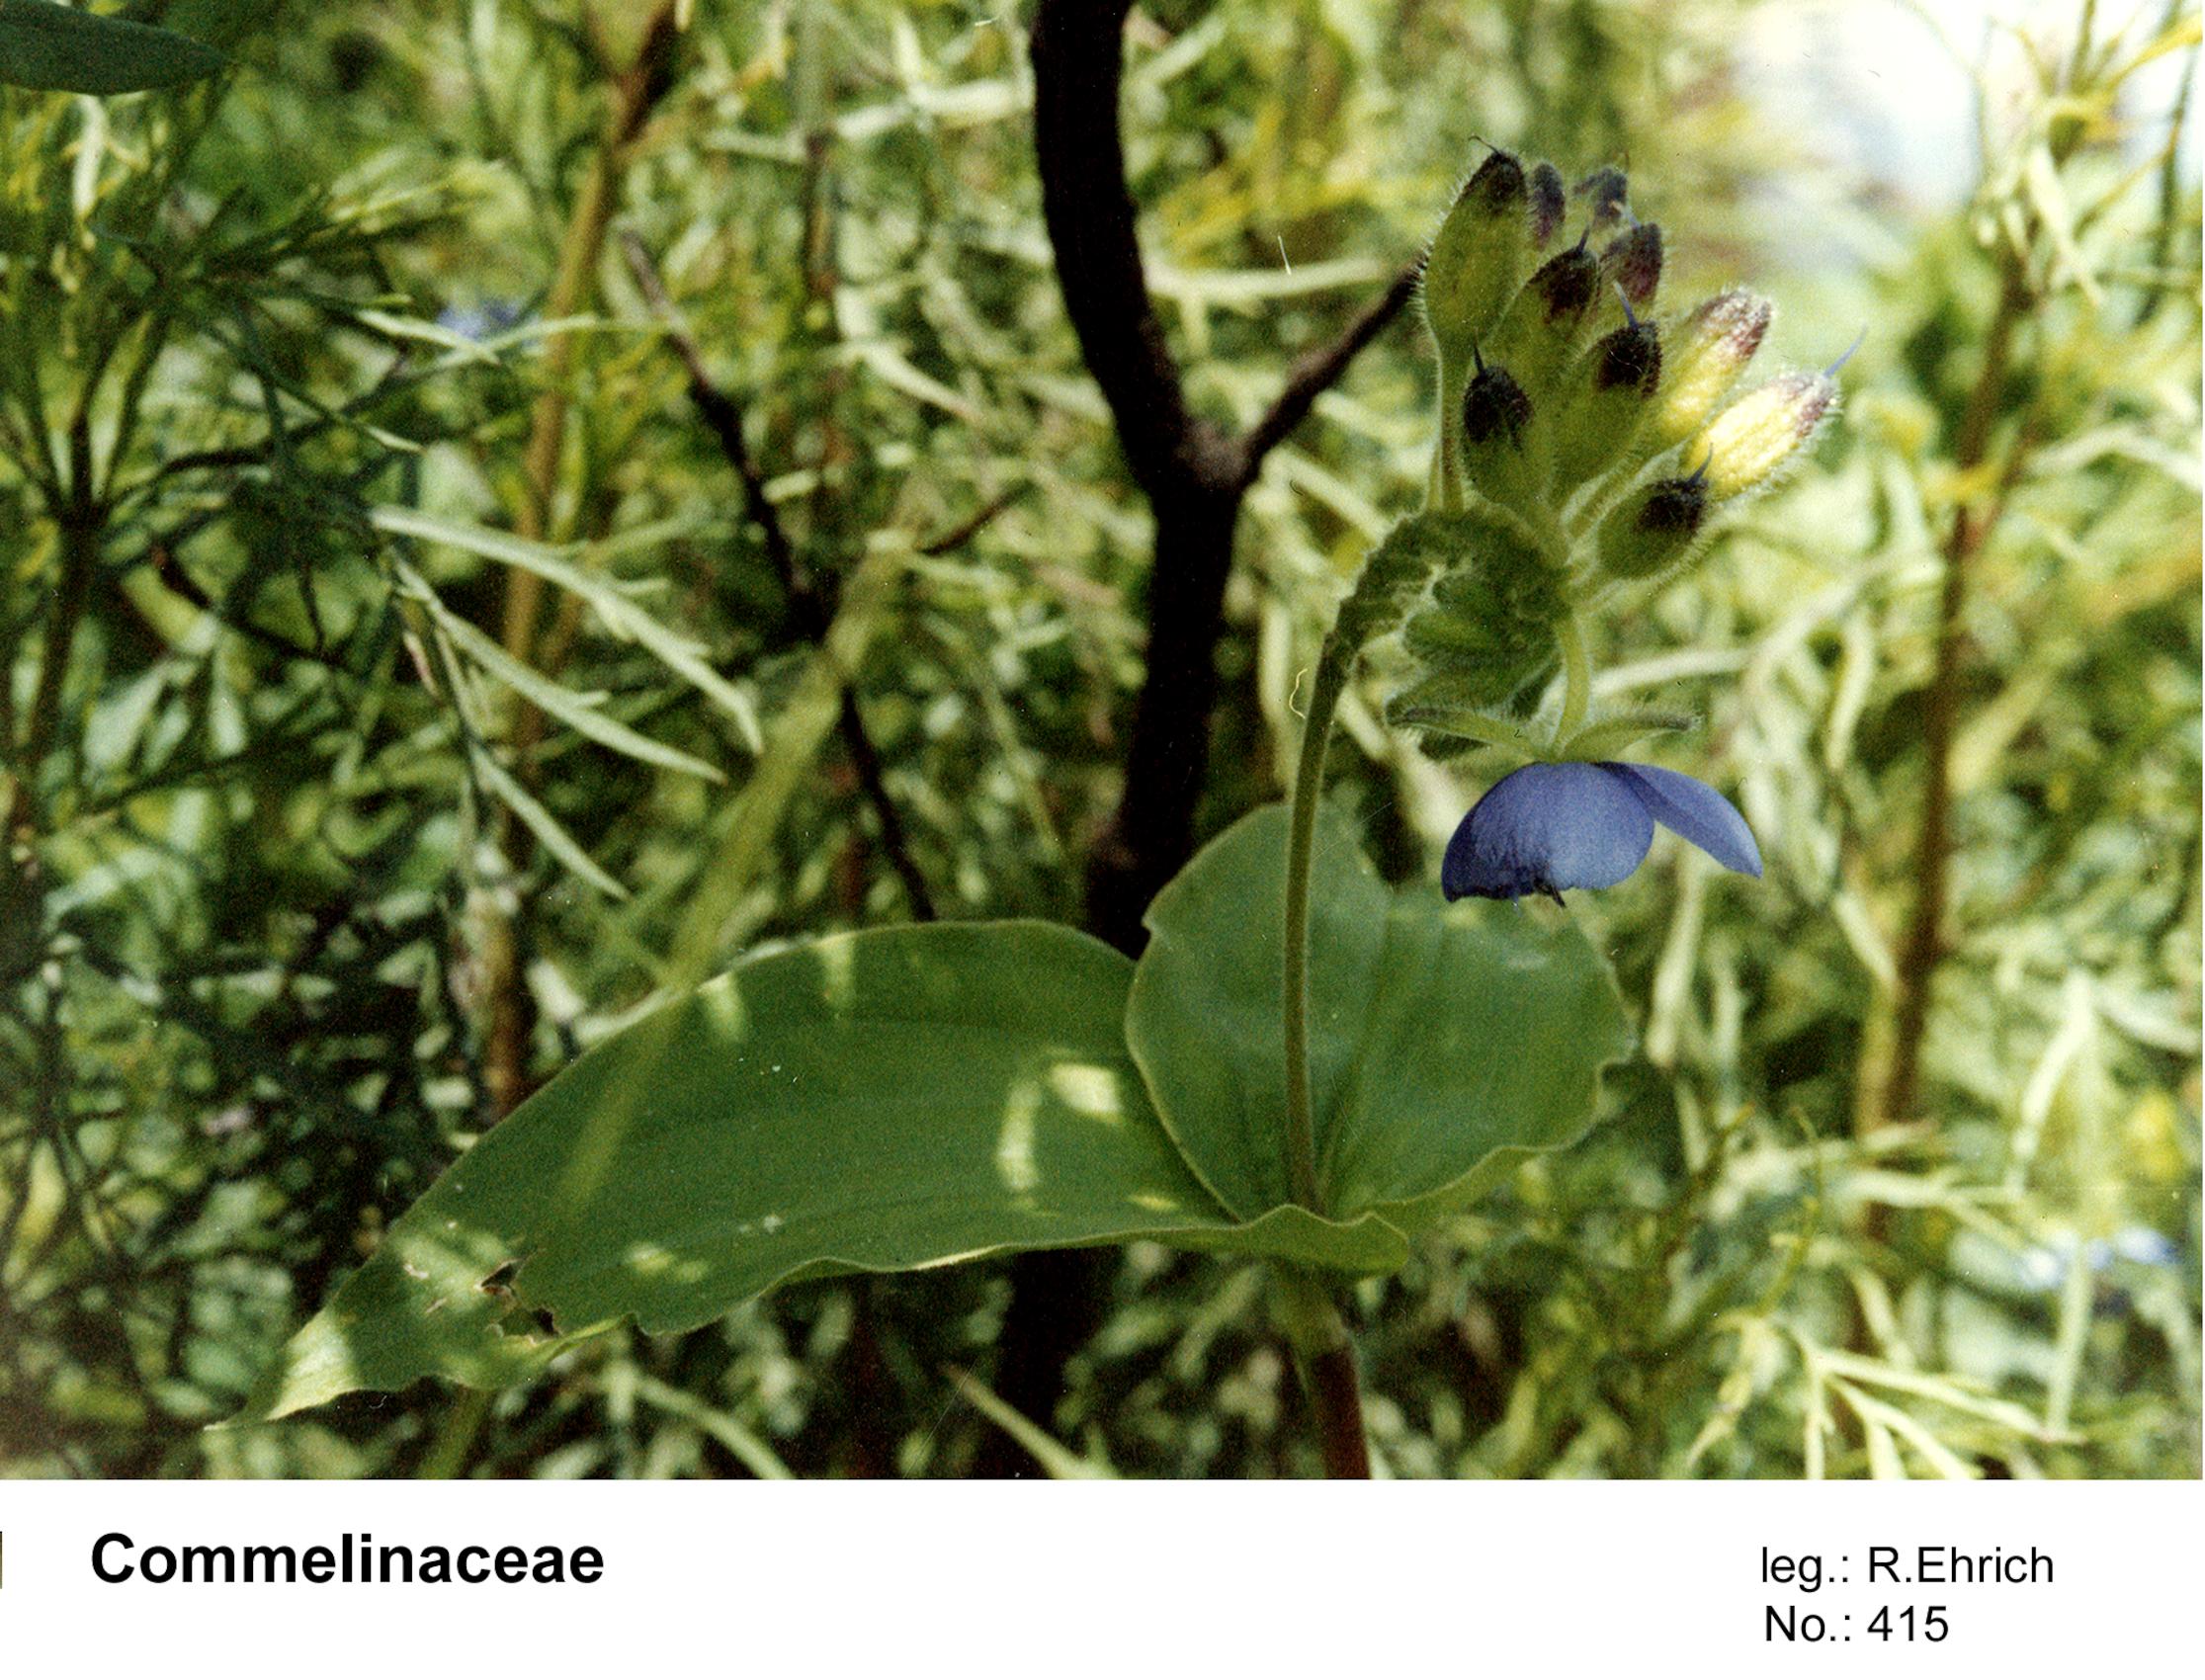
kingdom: Plantae
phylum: Tracheophyta
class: Liliopsida
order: Commelinales
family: Commelinaceae
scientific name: Commelinaceae
